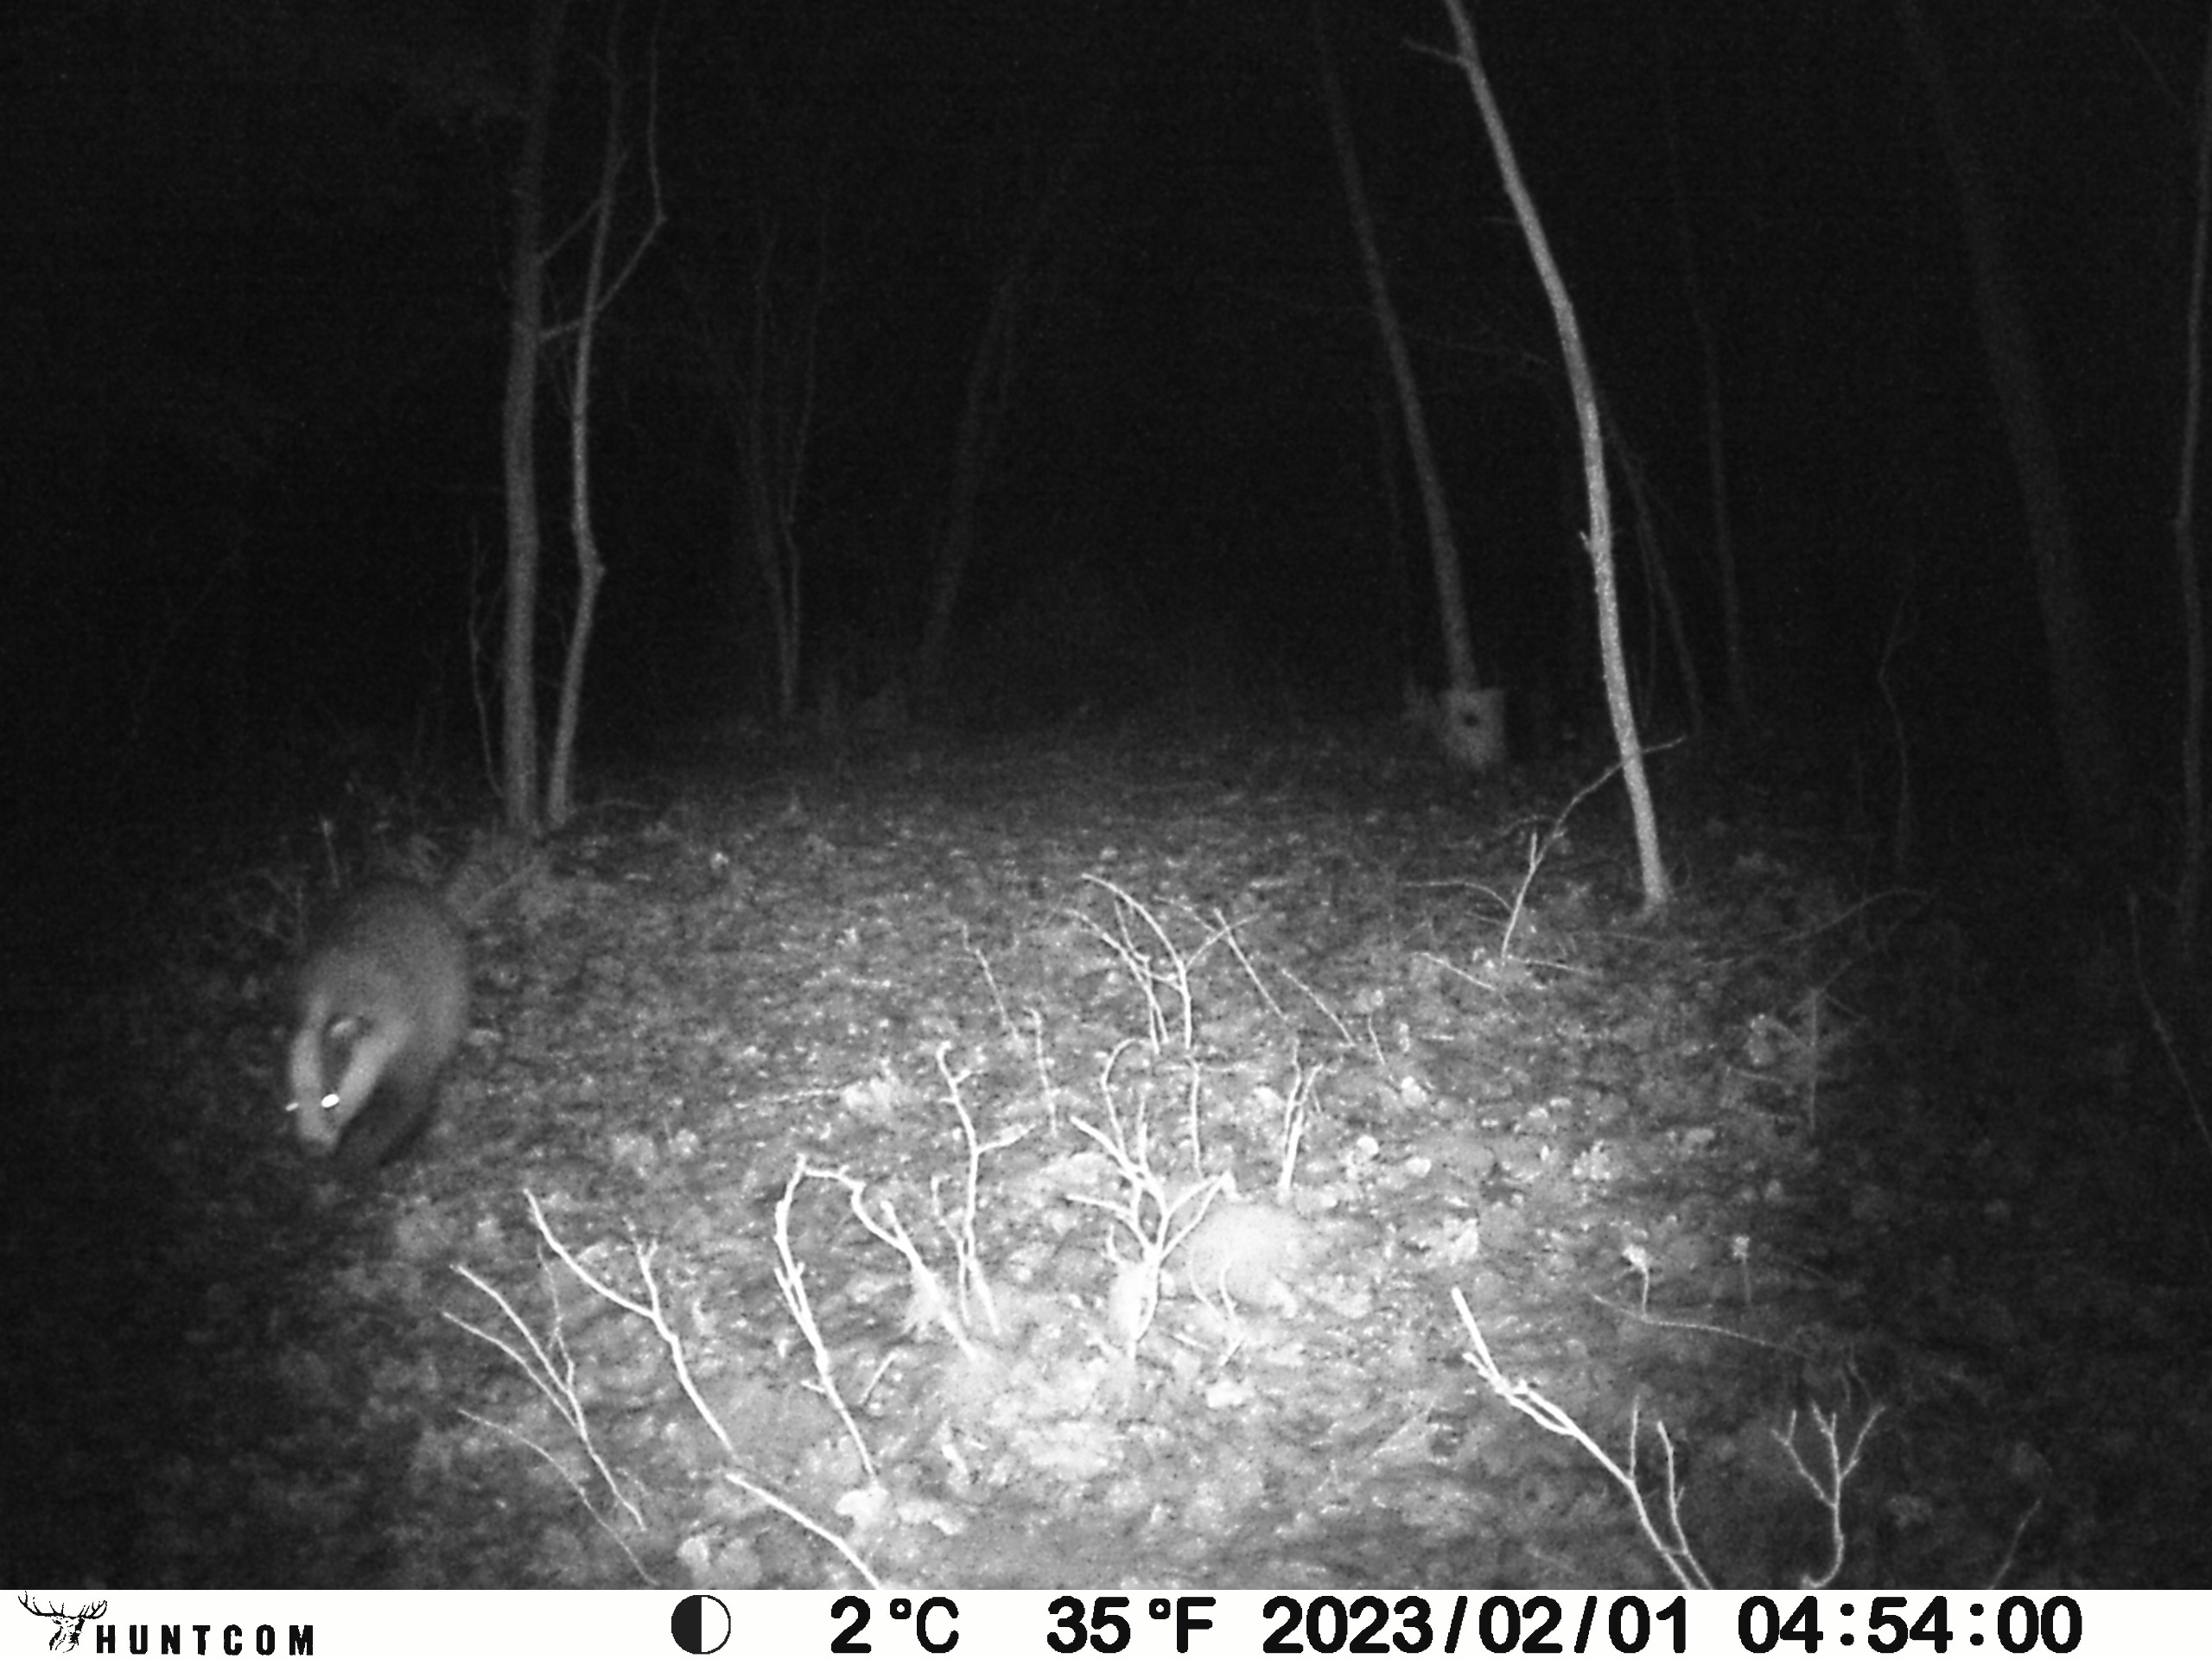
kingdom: Animalia
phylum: Chordata
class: Mammalia
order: Carnivora
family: Mustelidae
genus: Meles
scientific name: Meles meles
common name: Grævling
